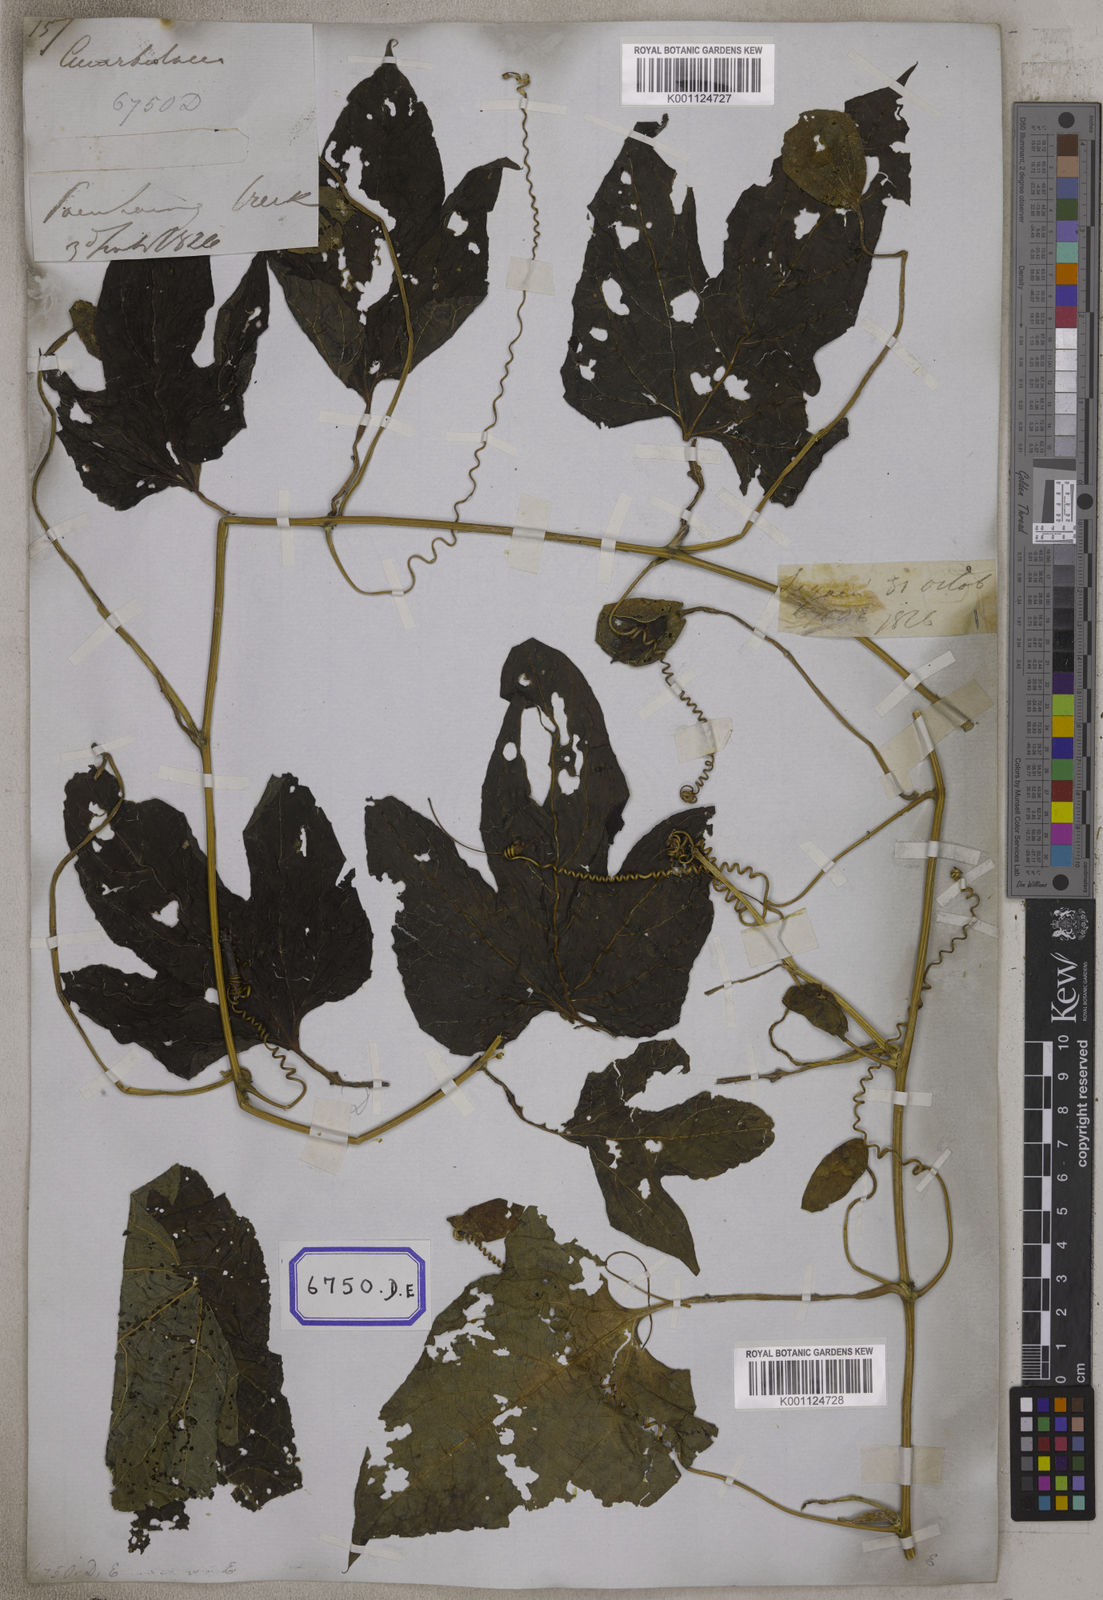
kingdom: Plantae
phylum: Tracheophyta
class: Magnoliopsida
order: Cucurbitales
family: Cucurbitaceae
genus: Momordica
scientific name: Momordica
